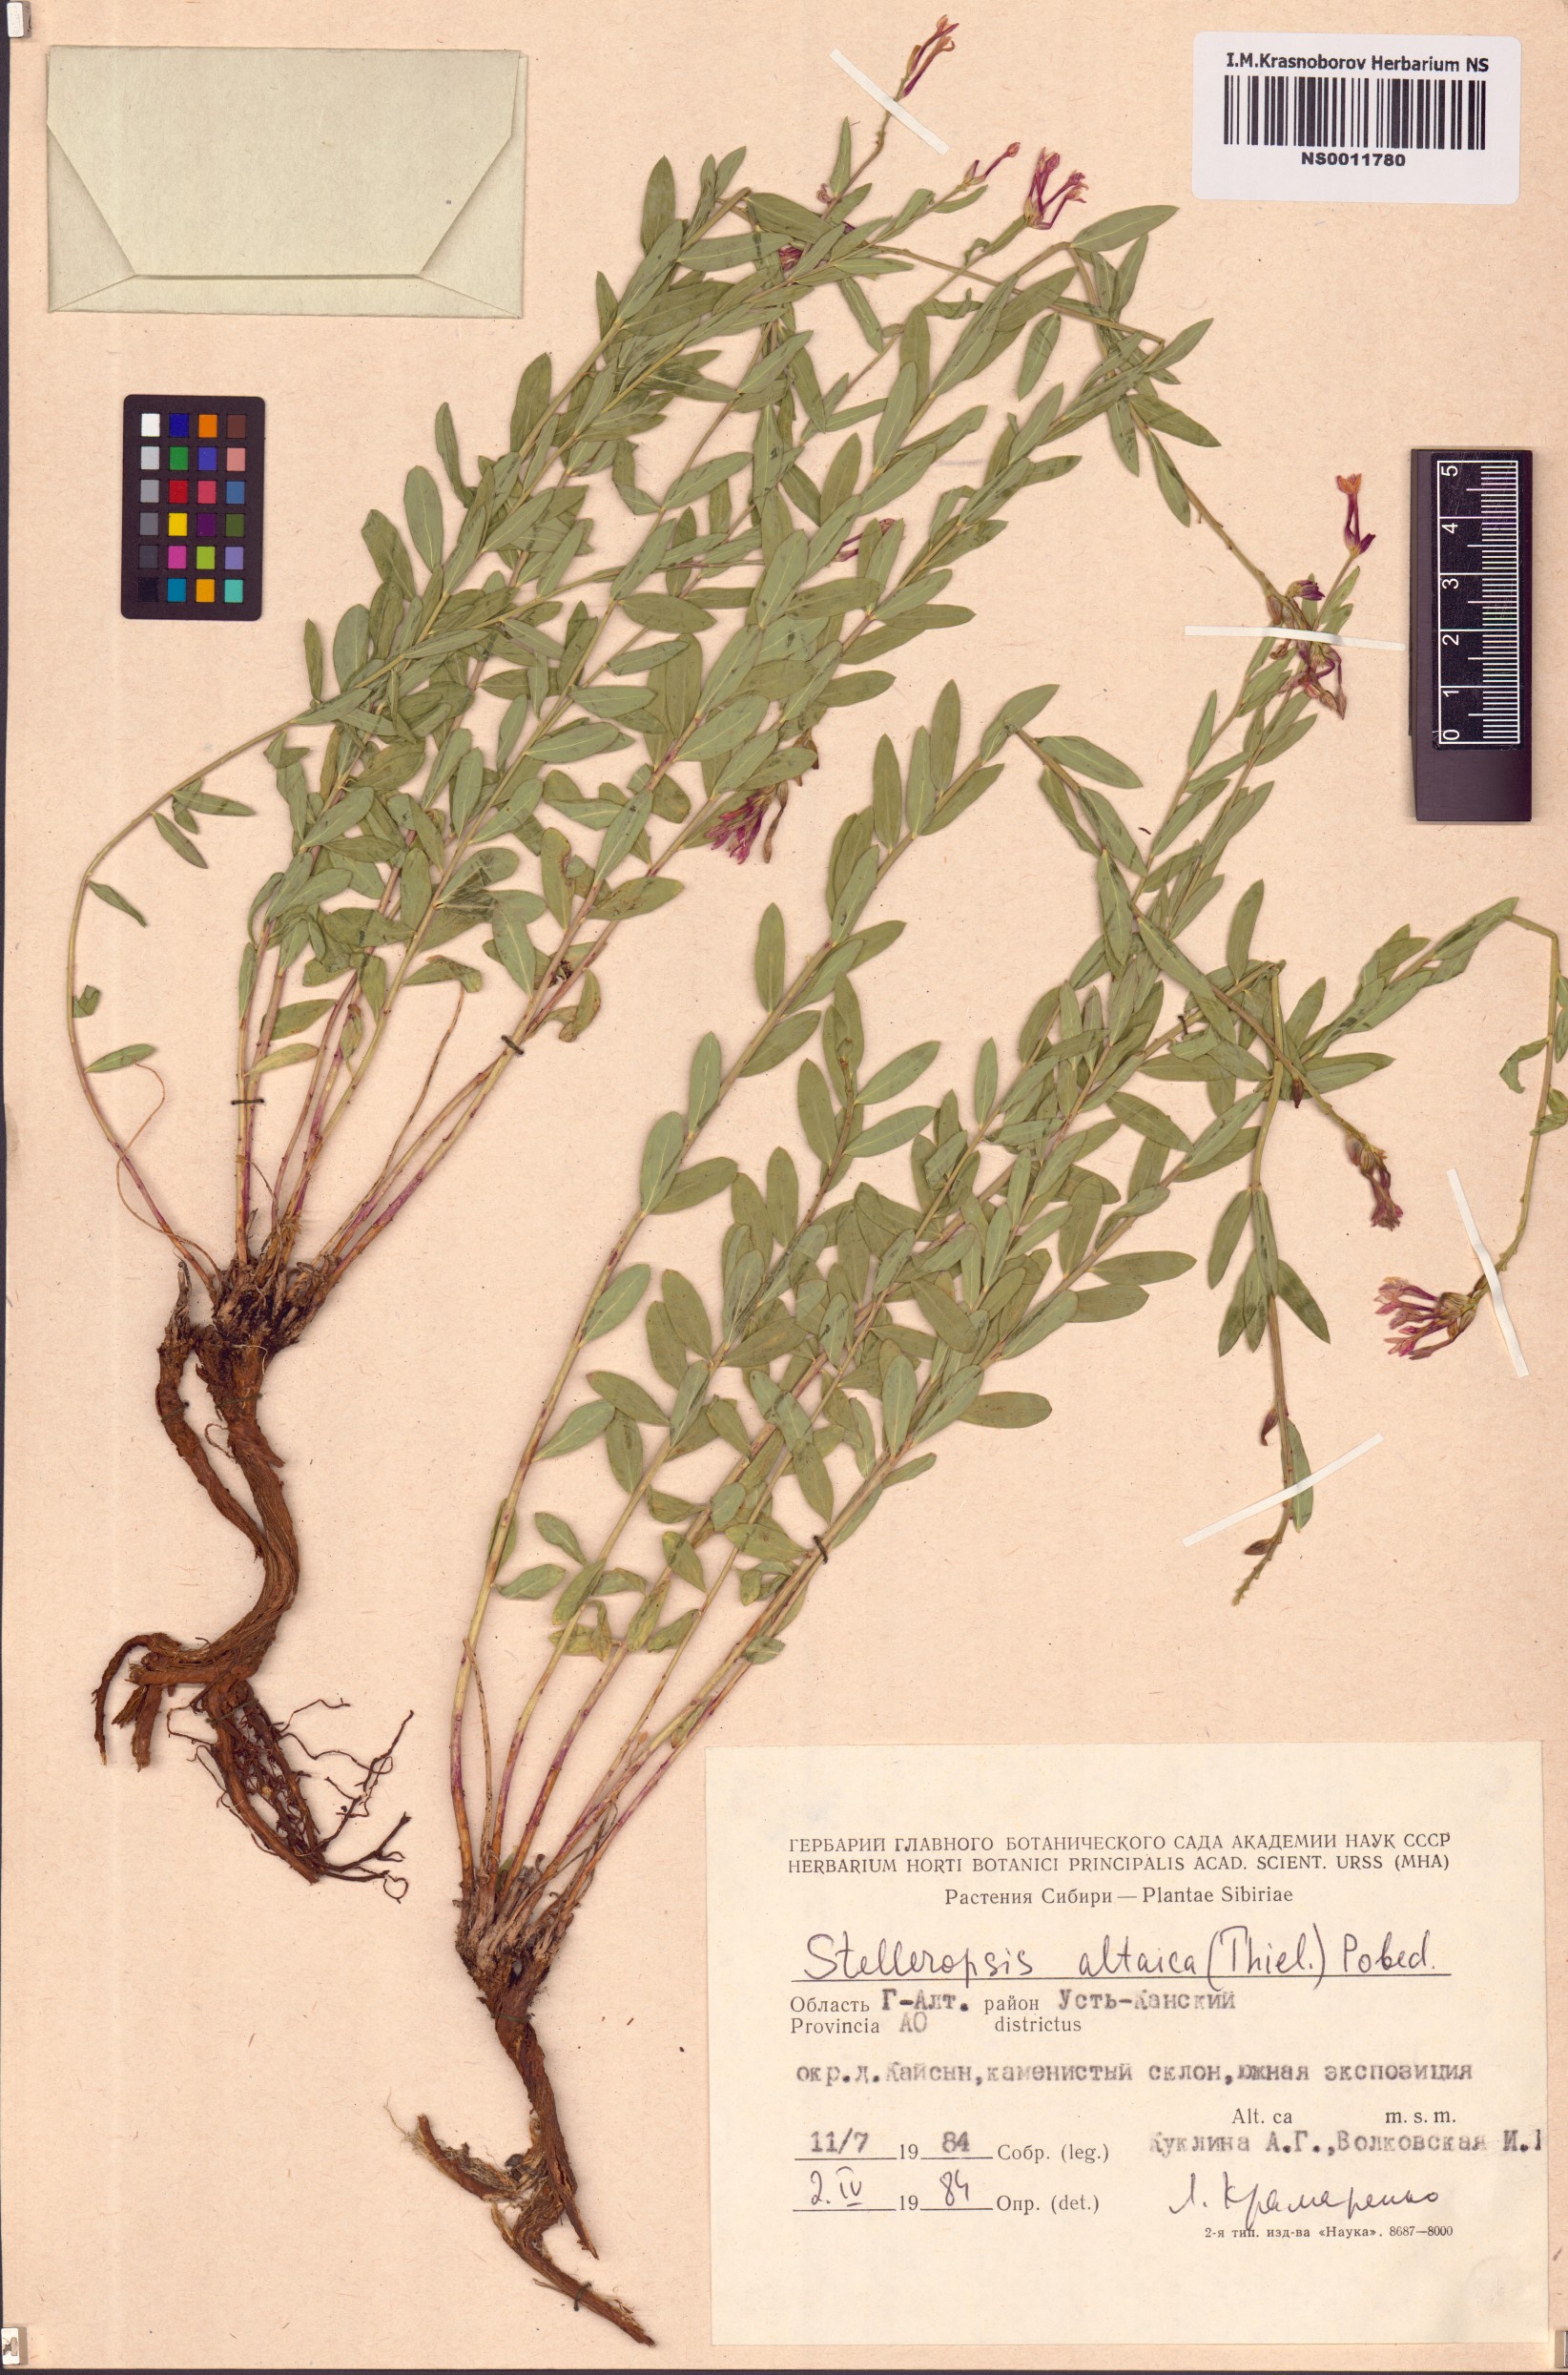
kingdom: Plantae
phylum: Tracheophyta
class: Magnoliopsida
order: Malvales
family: Thymelaeaceae
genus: Diarthron
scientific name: Diarthron altaicum
